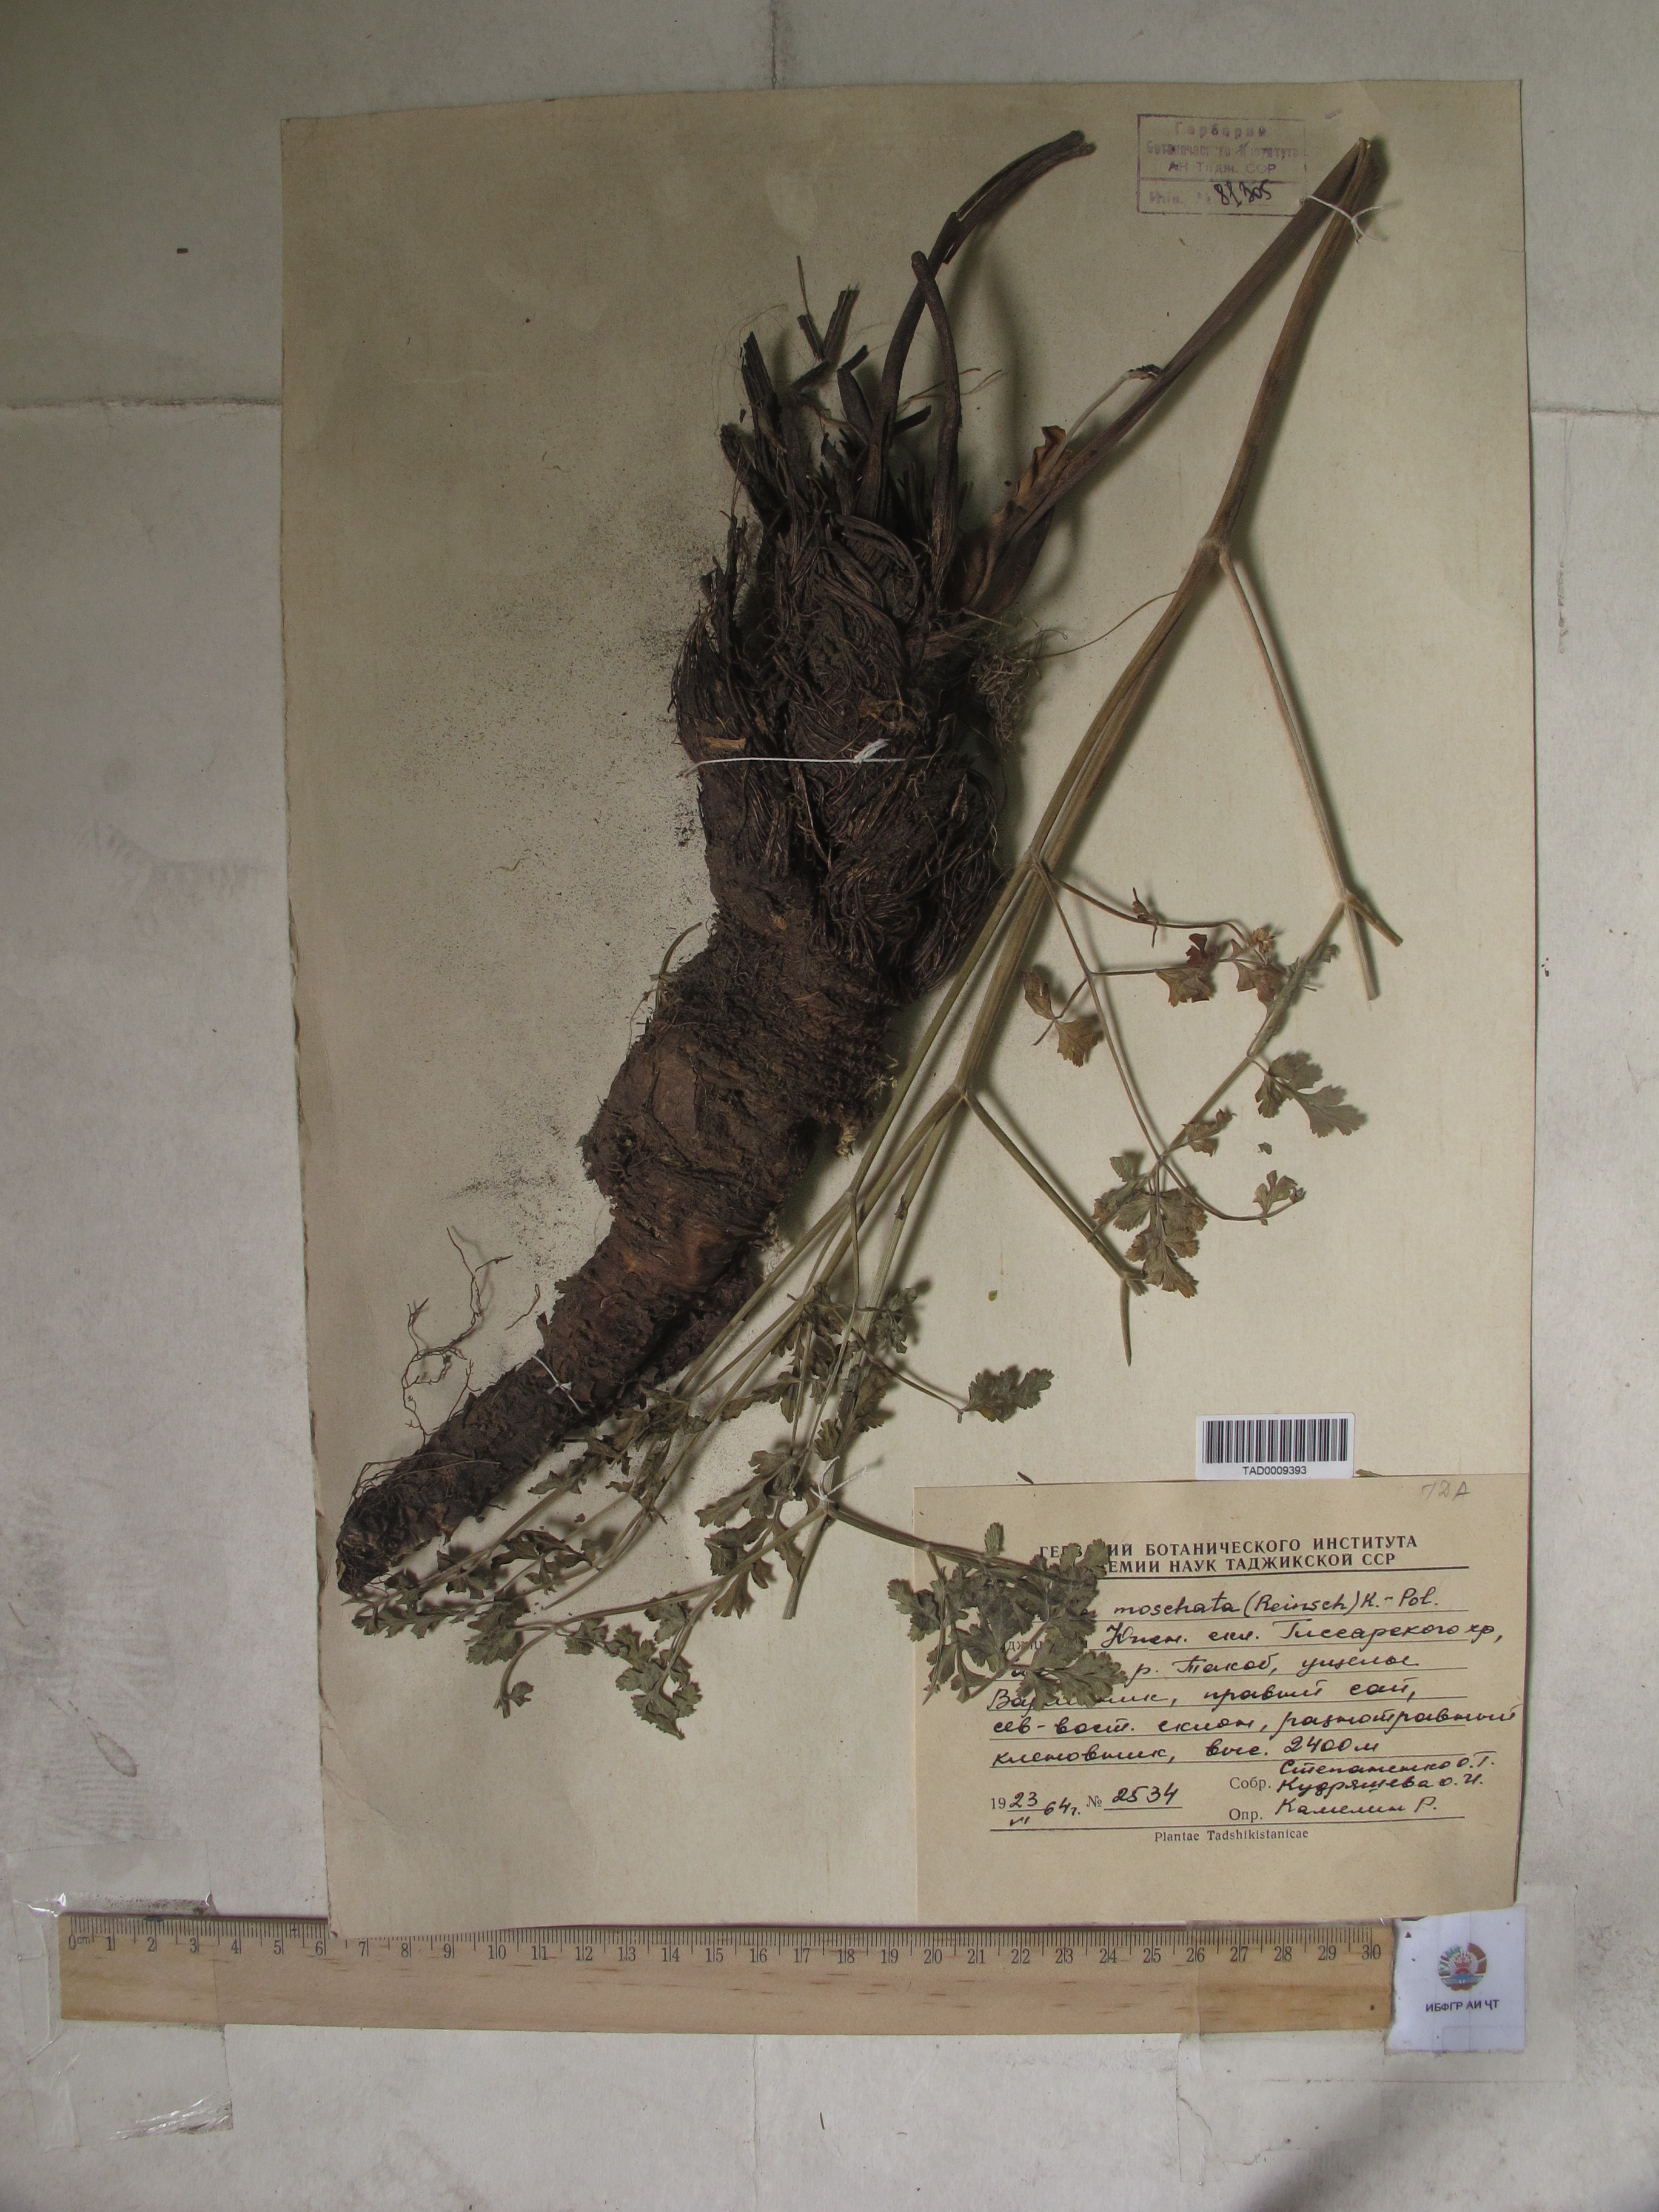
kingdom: Plantae
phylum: Tracheophyta
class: Magnoliopsida
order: Apiales
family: Apiaceae
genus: Ferula
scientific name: Ferula moschata
